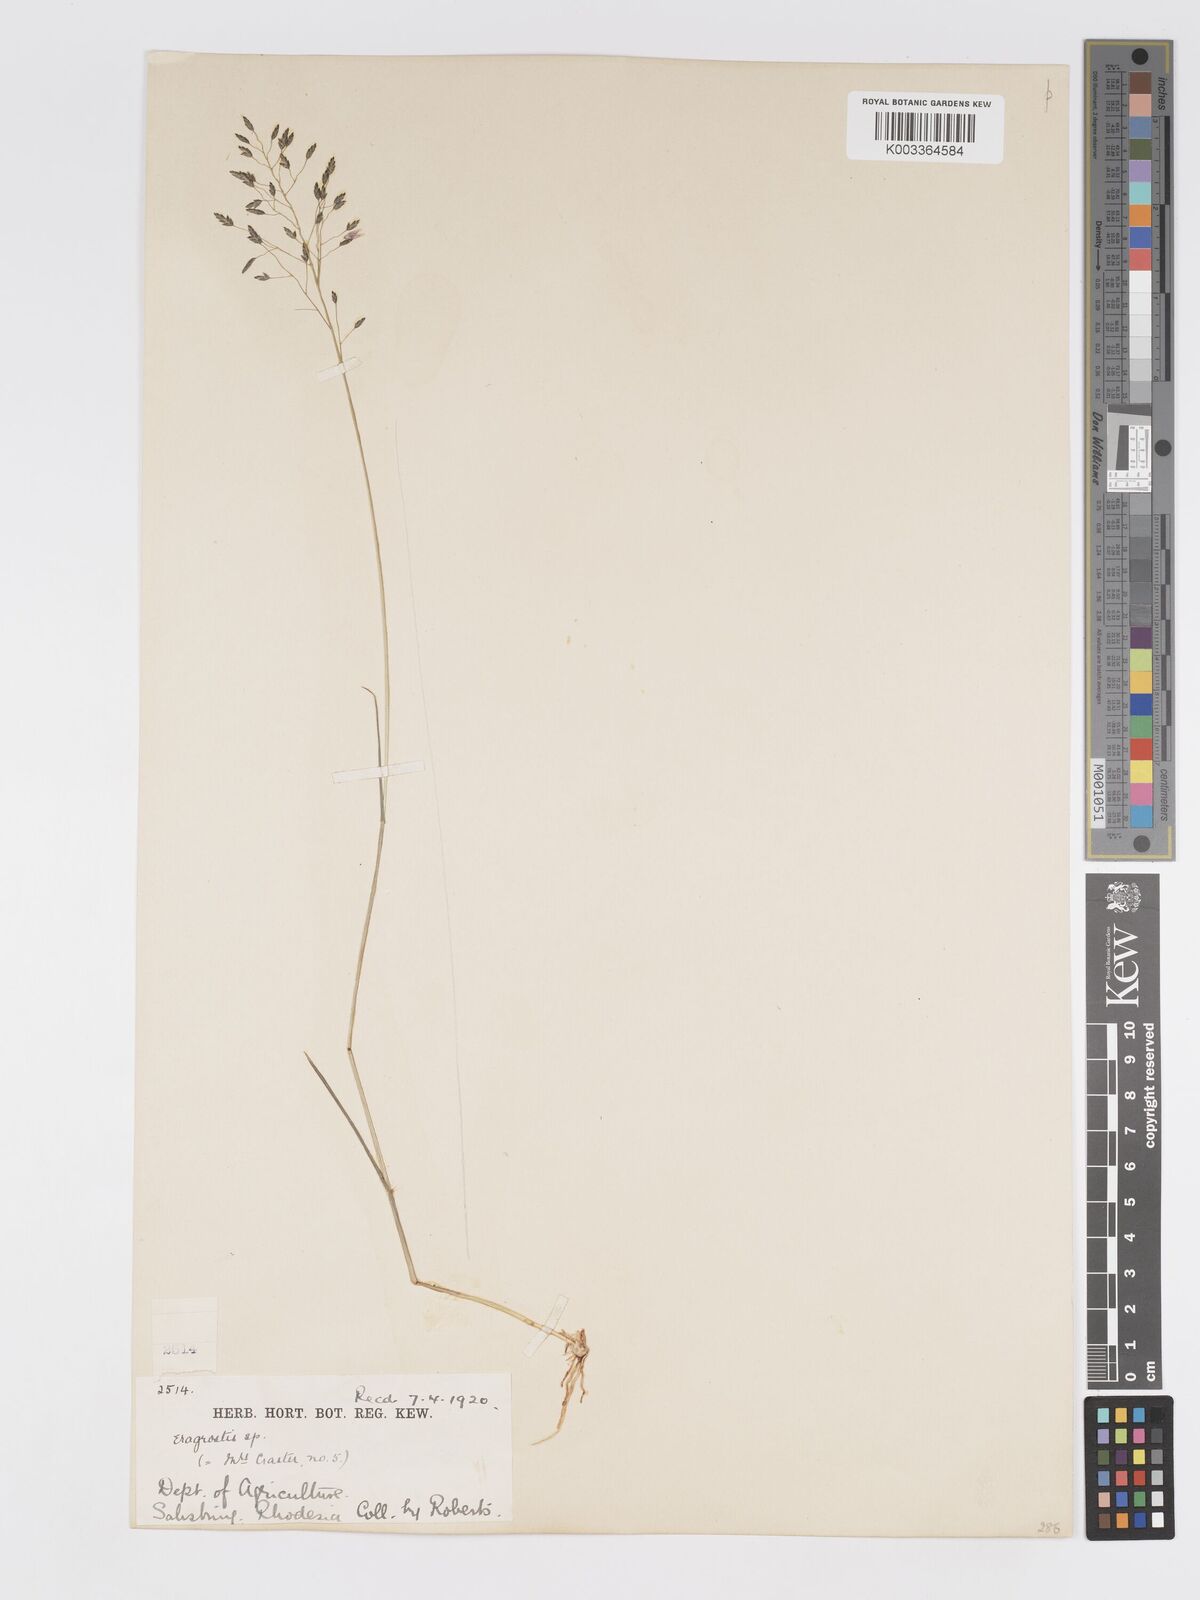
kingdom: Plantae
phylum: Tracheophyta
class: Liliopsida
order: Poales
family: Poaceae
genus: Eragrostis
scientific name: Eragrostis patentipilosa
